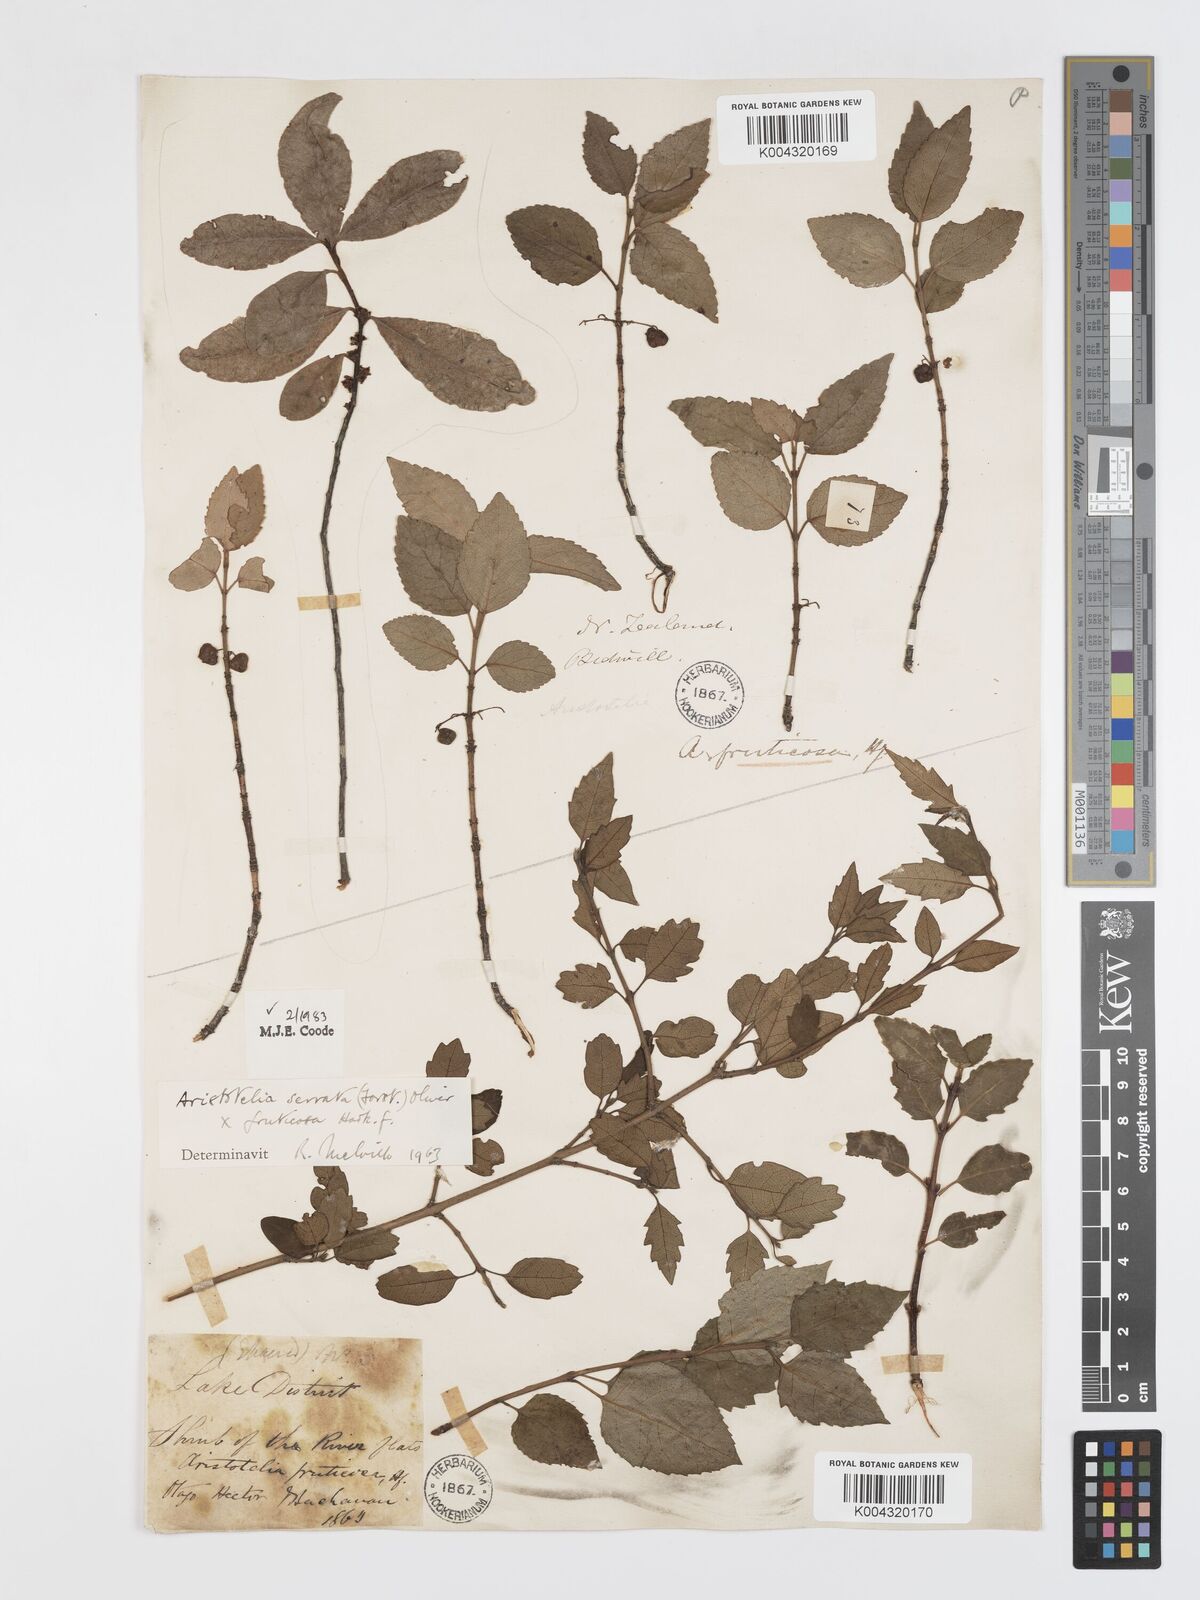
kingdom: Plantae
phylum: Tracheophyta
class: Magnoliopsida
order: Oxalidales
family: Elaeocarpaceae
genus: Aristotelia
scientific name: Aristotelia fruticosa
